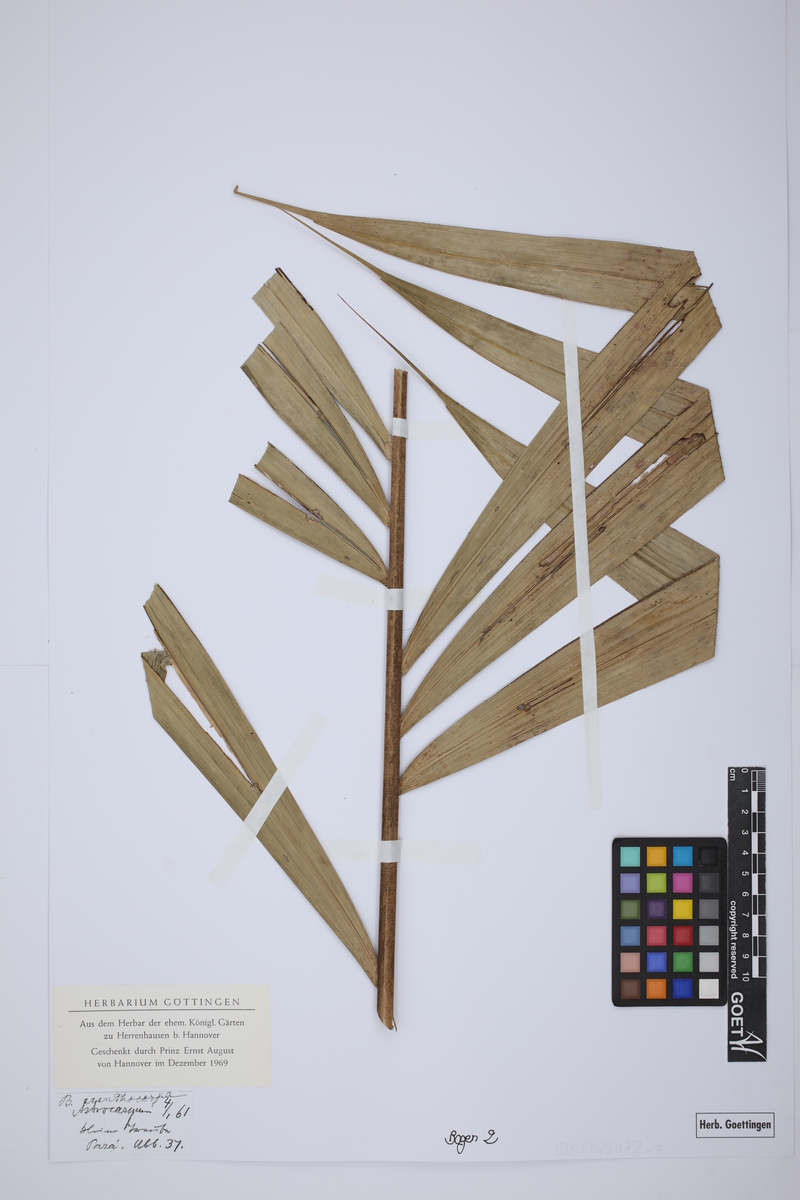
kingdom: Plantae
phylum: Tracheophyta
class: Liliopsida
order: Arecales
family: Arecaceae
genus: Bactris
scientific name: Bactris acanthocarpa
